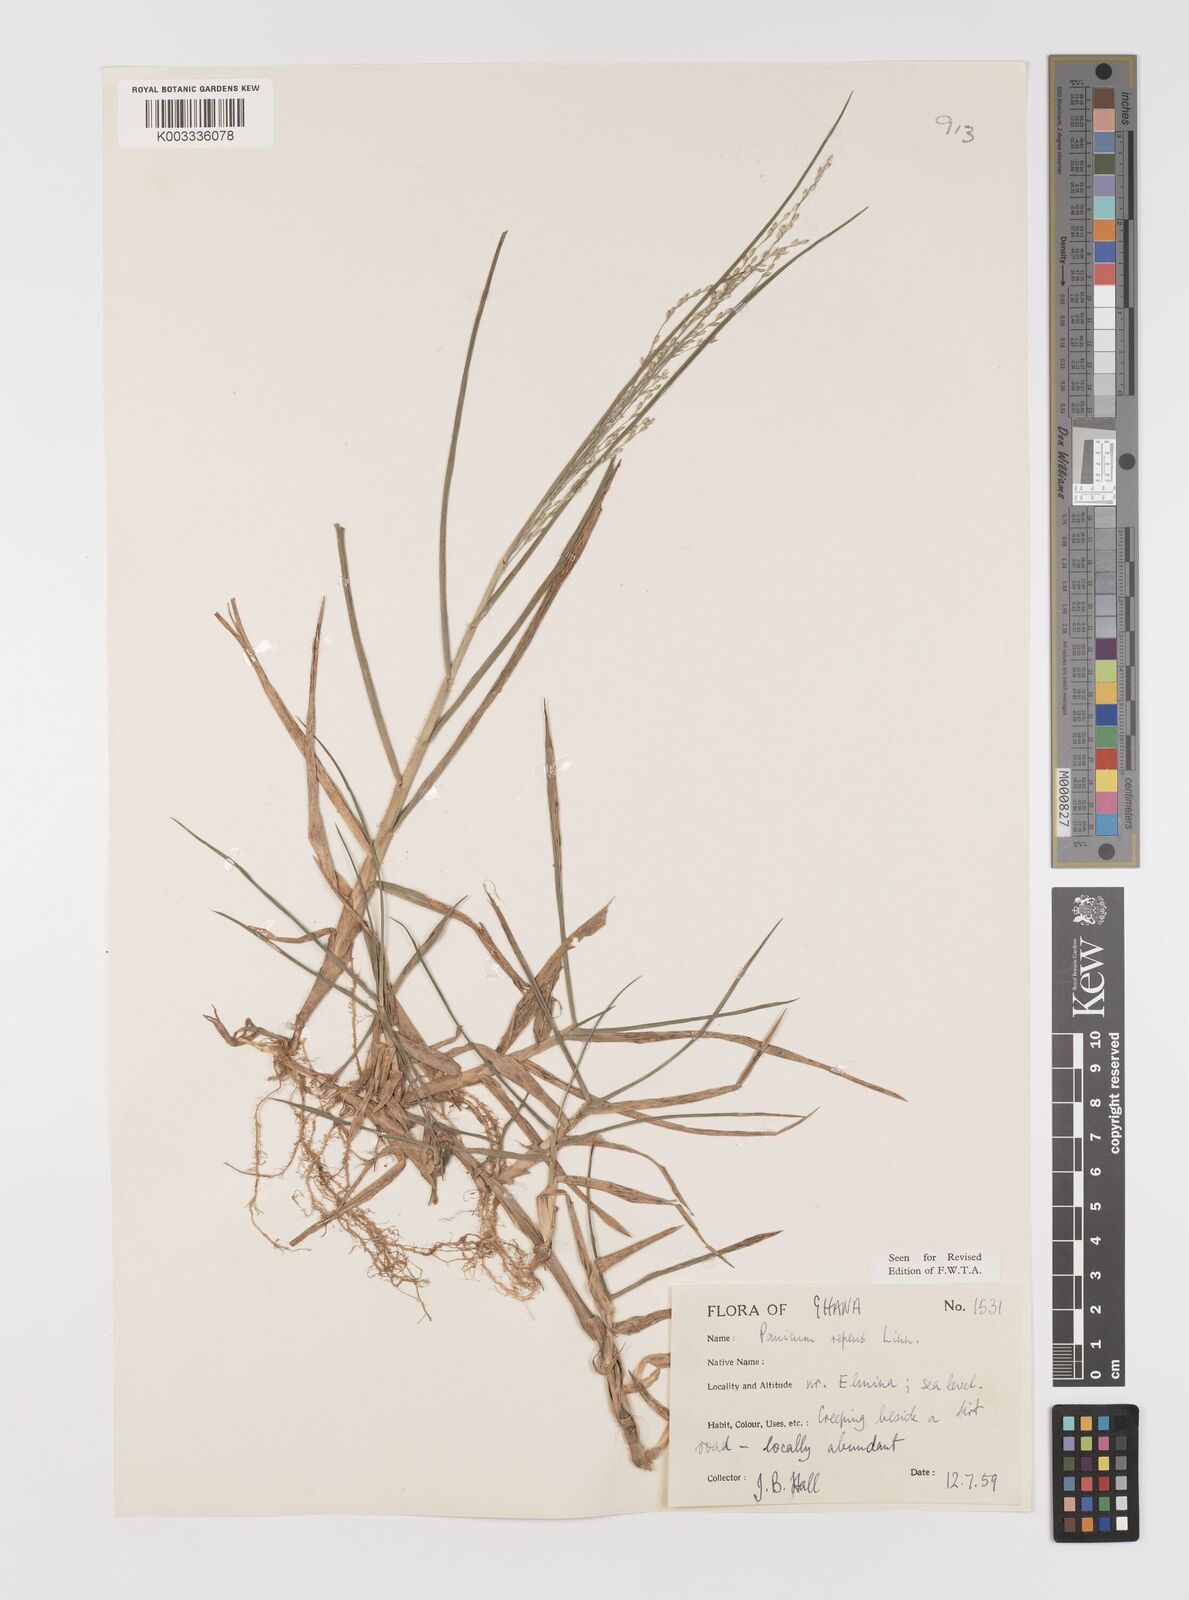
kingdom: Plantae
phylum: Tracheophyta
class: Liliopsida
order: Poales
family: Poaceae
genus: Panicum
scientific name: Panicum repens
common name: Torpedo grass
